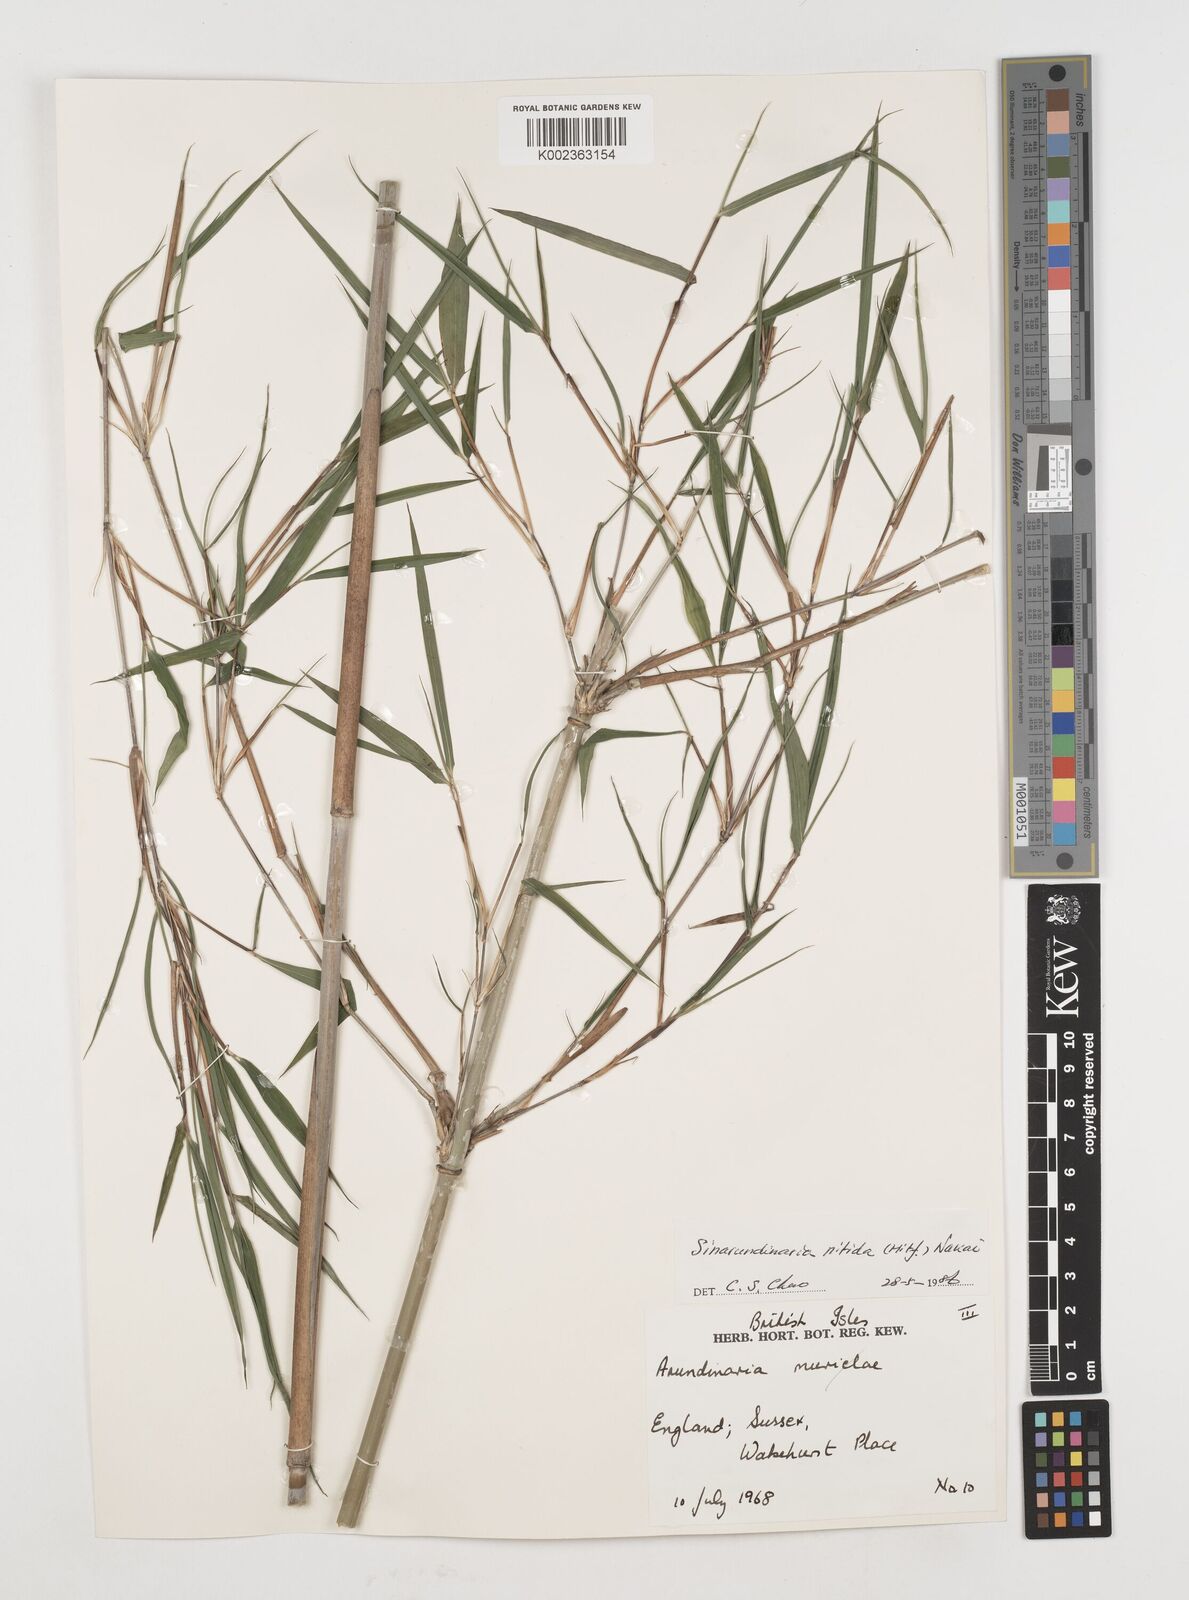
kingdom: Plantae
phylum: Tracheophyta
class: Liliopsida
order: Poales
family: Poaceae
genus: Fargesia
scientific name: Fargesia nitida ex
